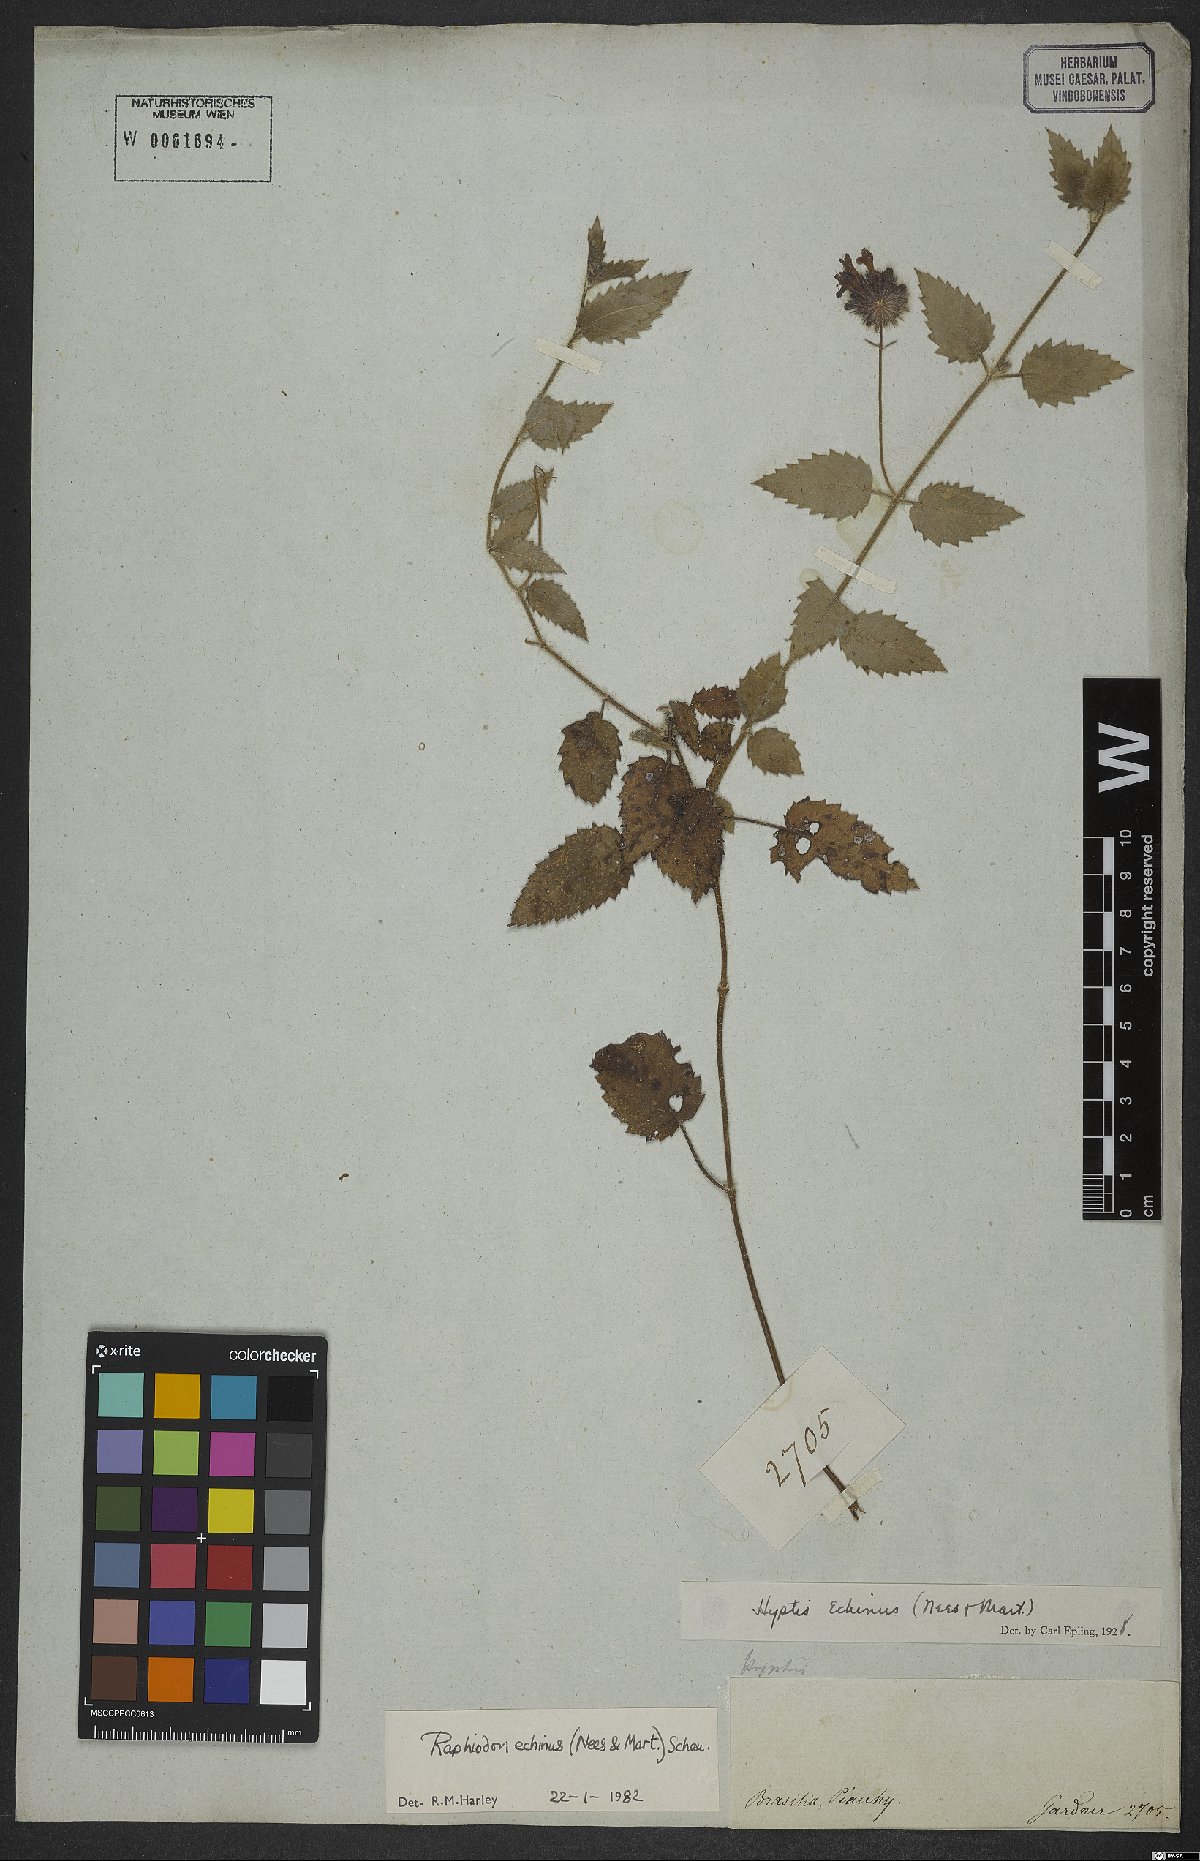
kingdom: Plantae
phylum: Tracheophyta
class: Magnoliopsida
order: Lamiales
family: Lamiaceae
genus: Rhaphiodon
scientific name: Rhaphiodon echinus
